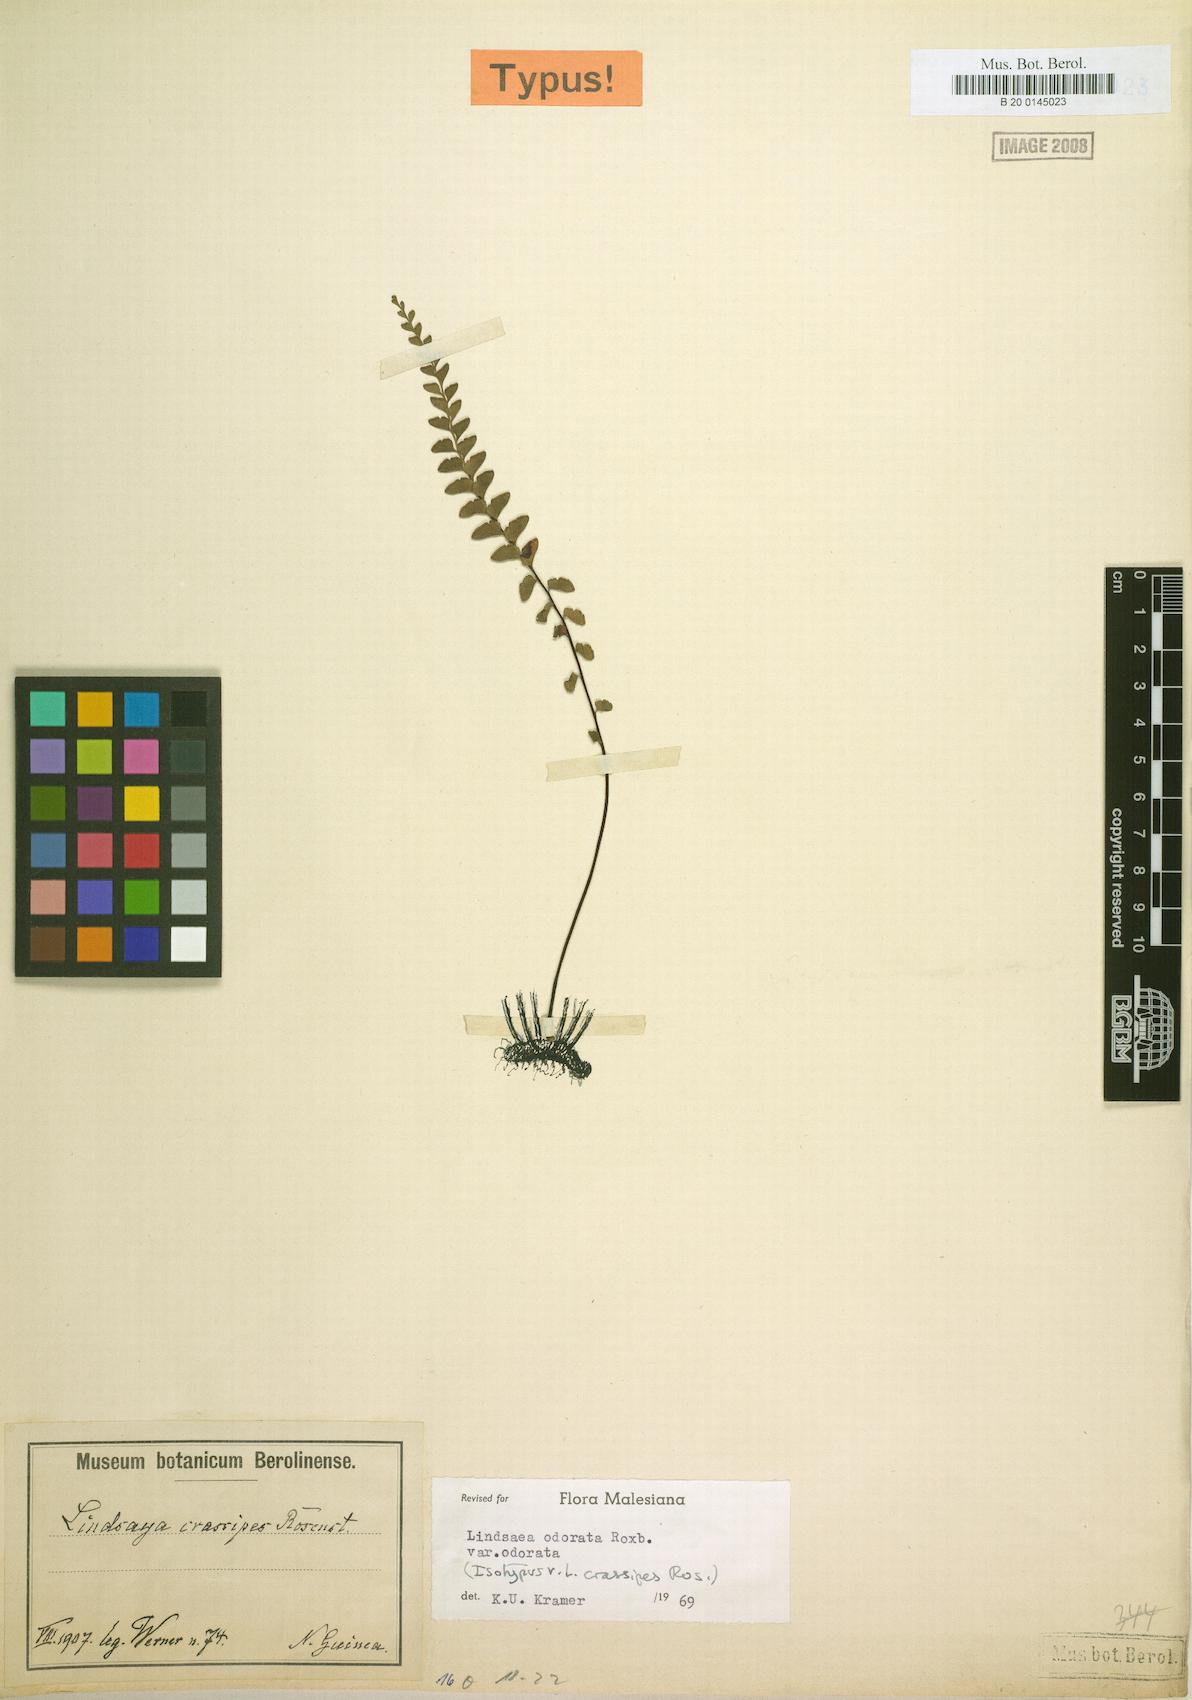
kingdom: Plantae
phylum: Tracheophyta
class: Polypodiopsida
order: Polypodiales
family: Lindsaeaceae
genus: Osmolindsaea
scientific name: Osmolindsaea odorata
